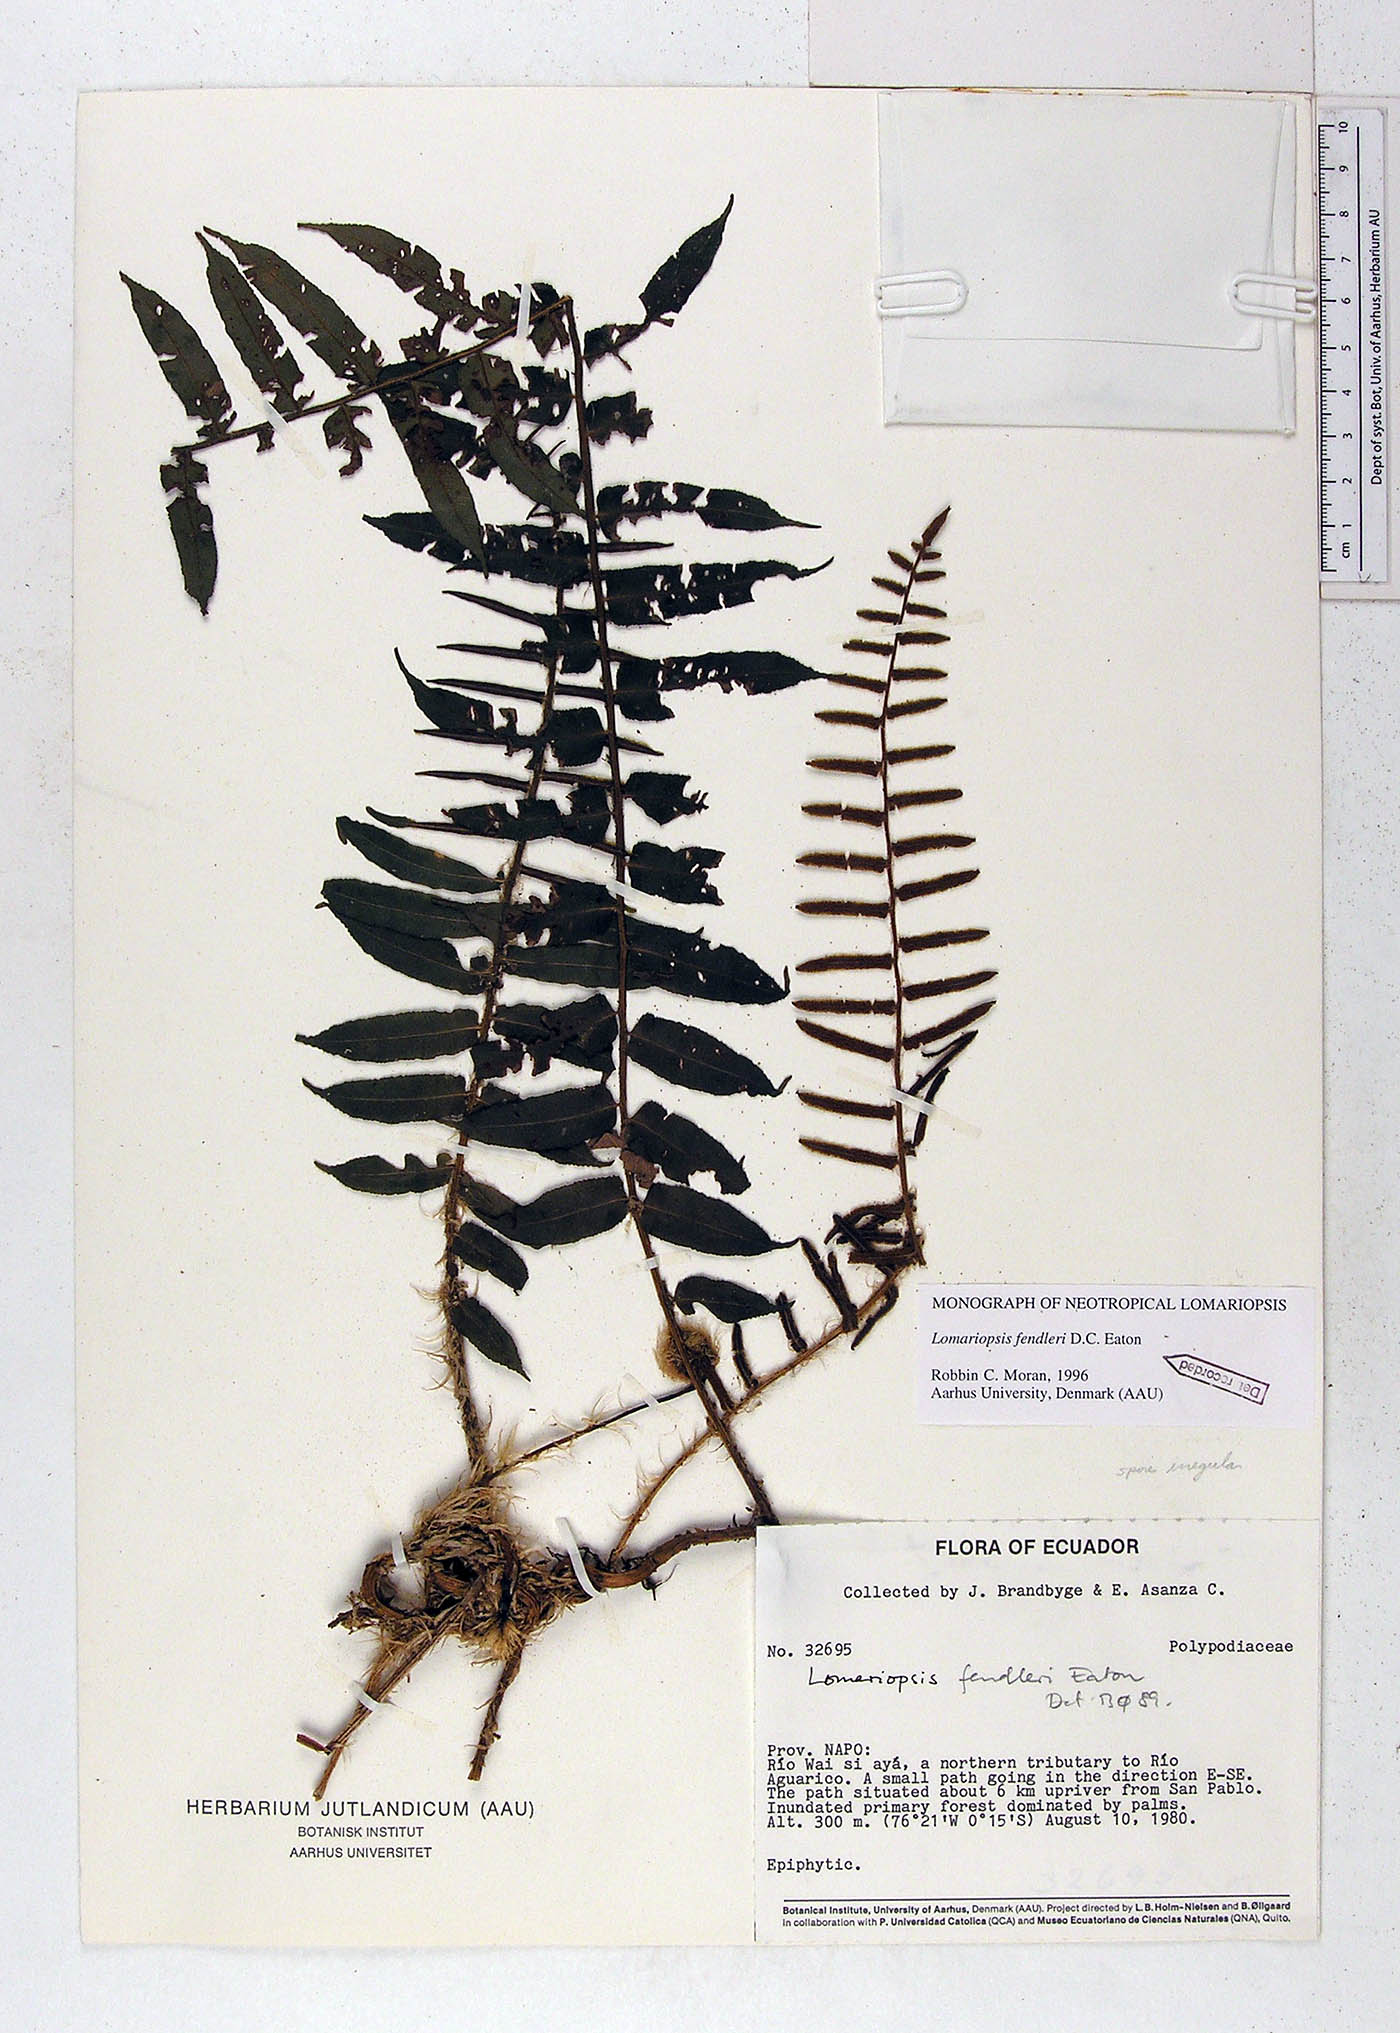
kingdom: Plantae
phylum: Tracheophyta
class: Polypodiopsida
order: Polypodiales
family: Lomariopsidaceae
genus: Lomariopsis
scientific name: Lomariopsis fendleri
